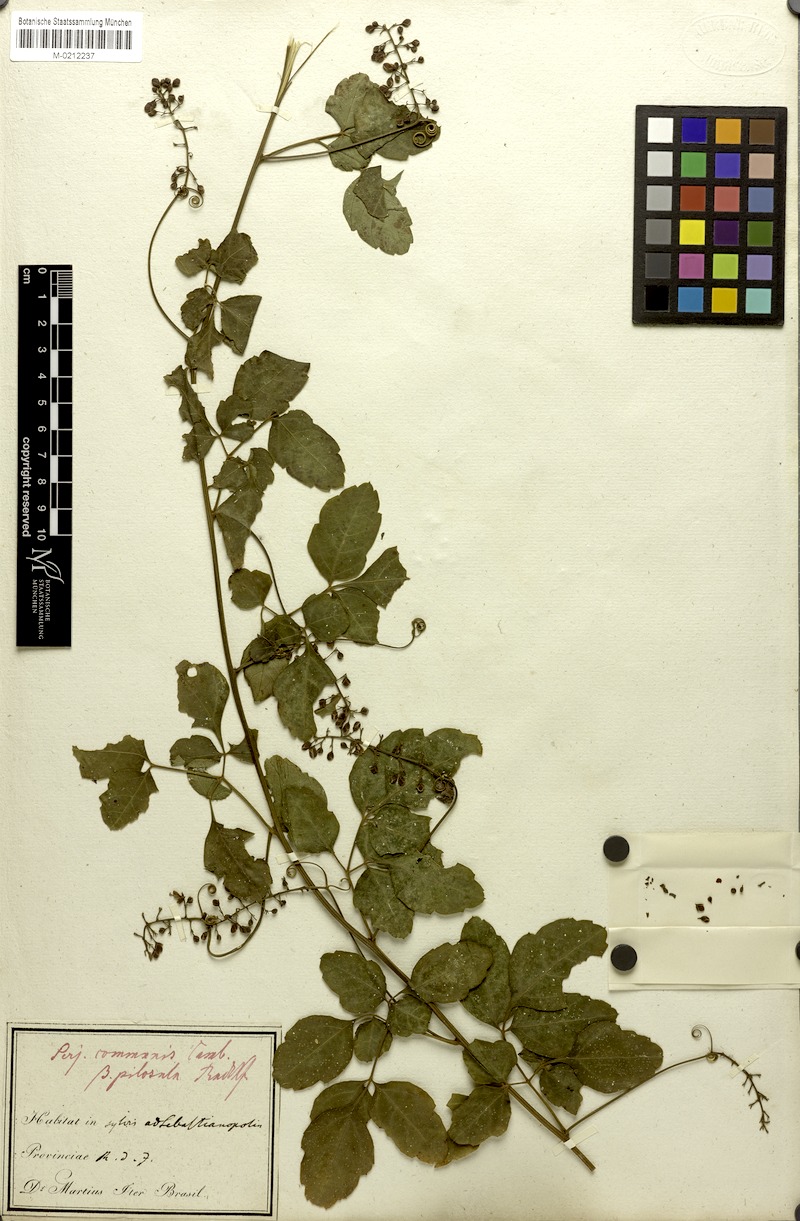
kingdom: Plantae
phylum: Tracheophyta
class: Magnoliopsida
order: Sapindales
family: Sapindaceae
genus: Serjania
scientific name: Serjania communis
